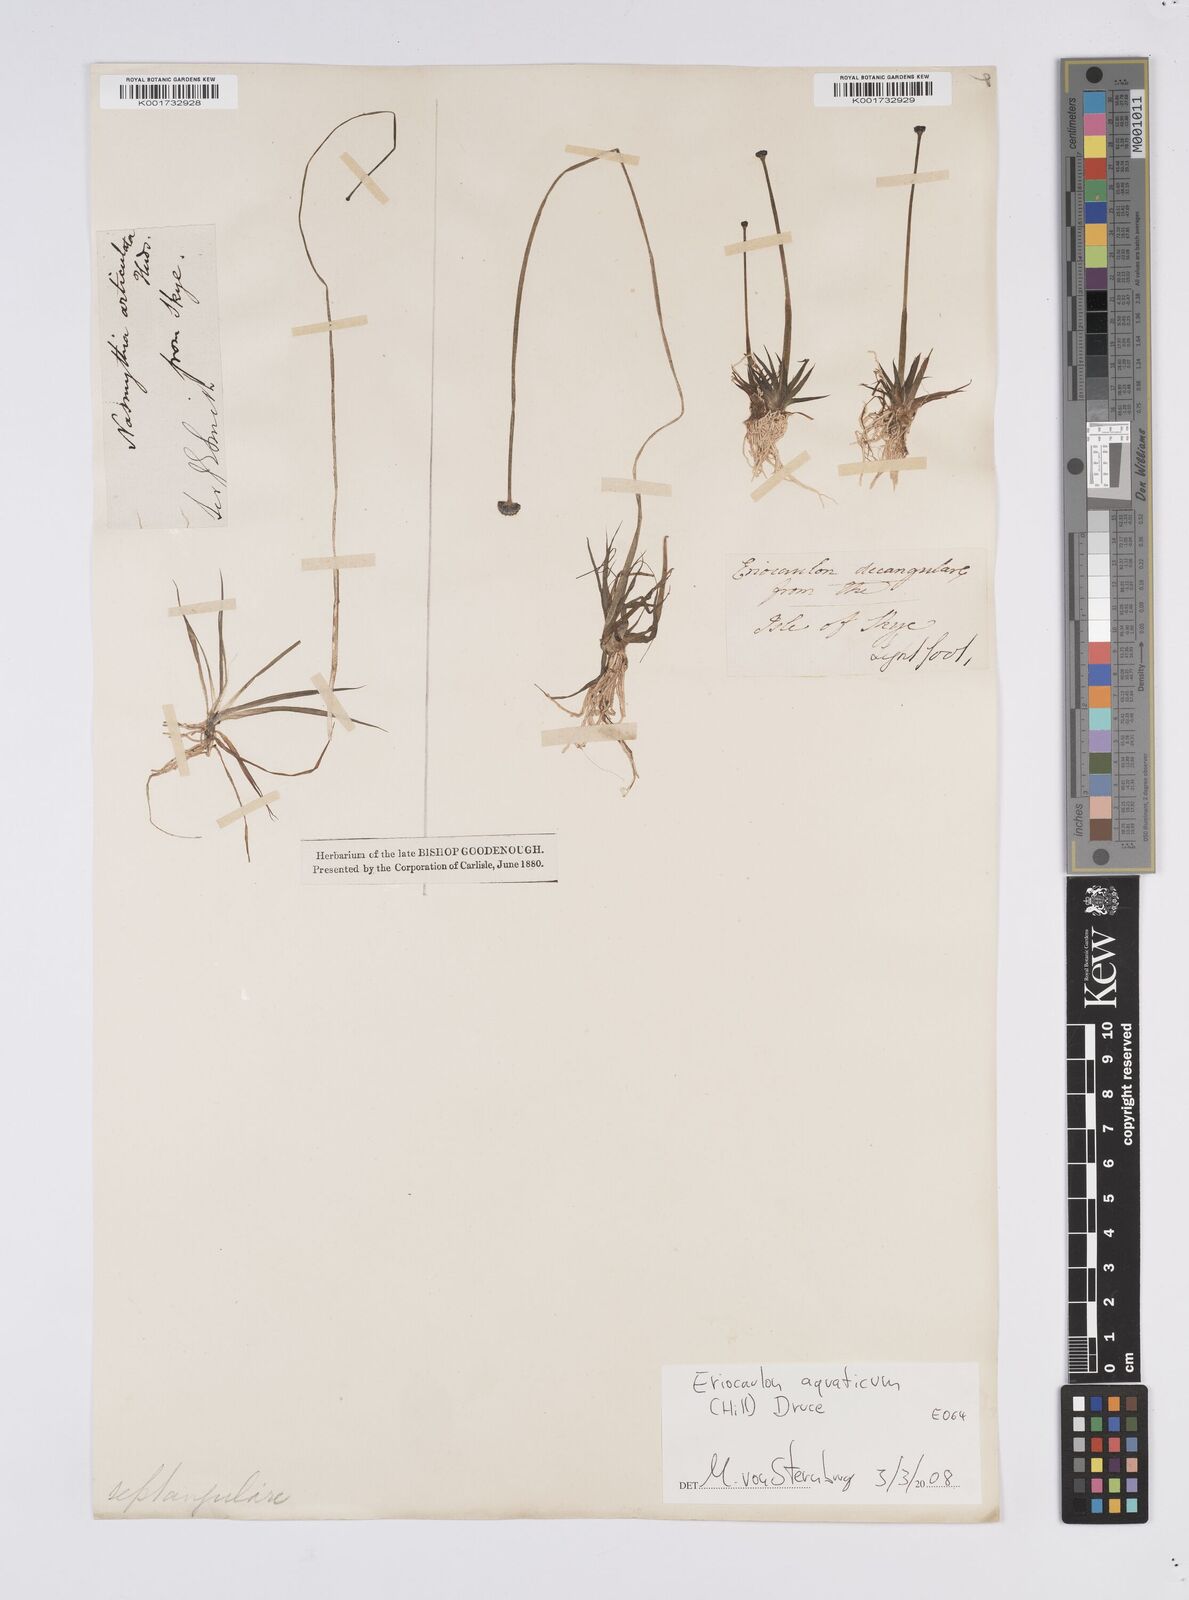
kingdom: Plantae
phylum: Tracheophyta
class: Liliopsida
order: Poales
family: Eriocaulaceae
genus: Eriocaulon
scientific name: Eriocaulon aquaticum
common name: Pipewort
